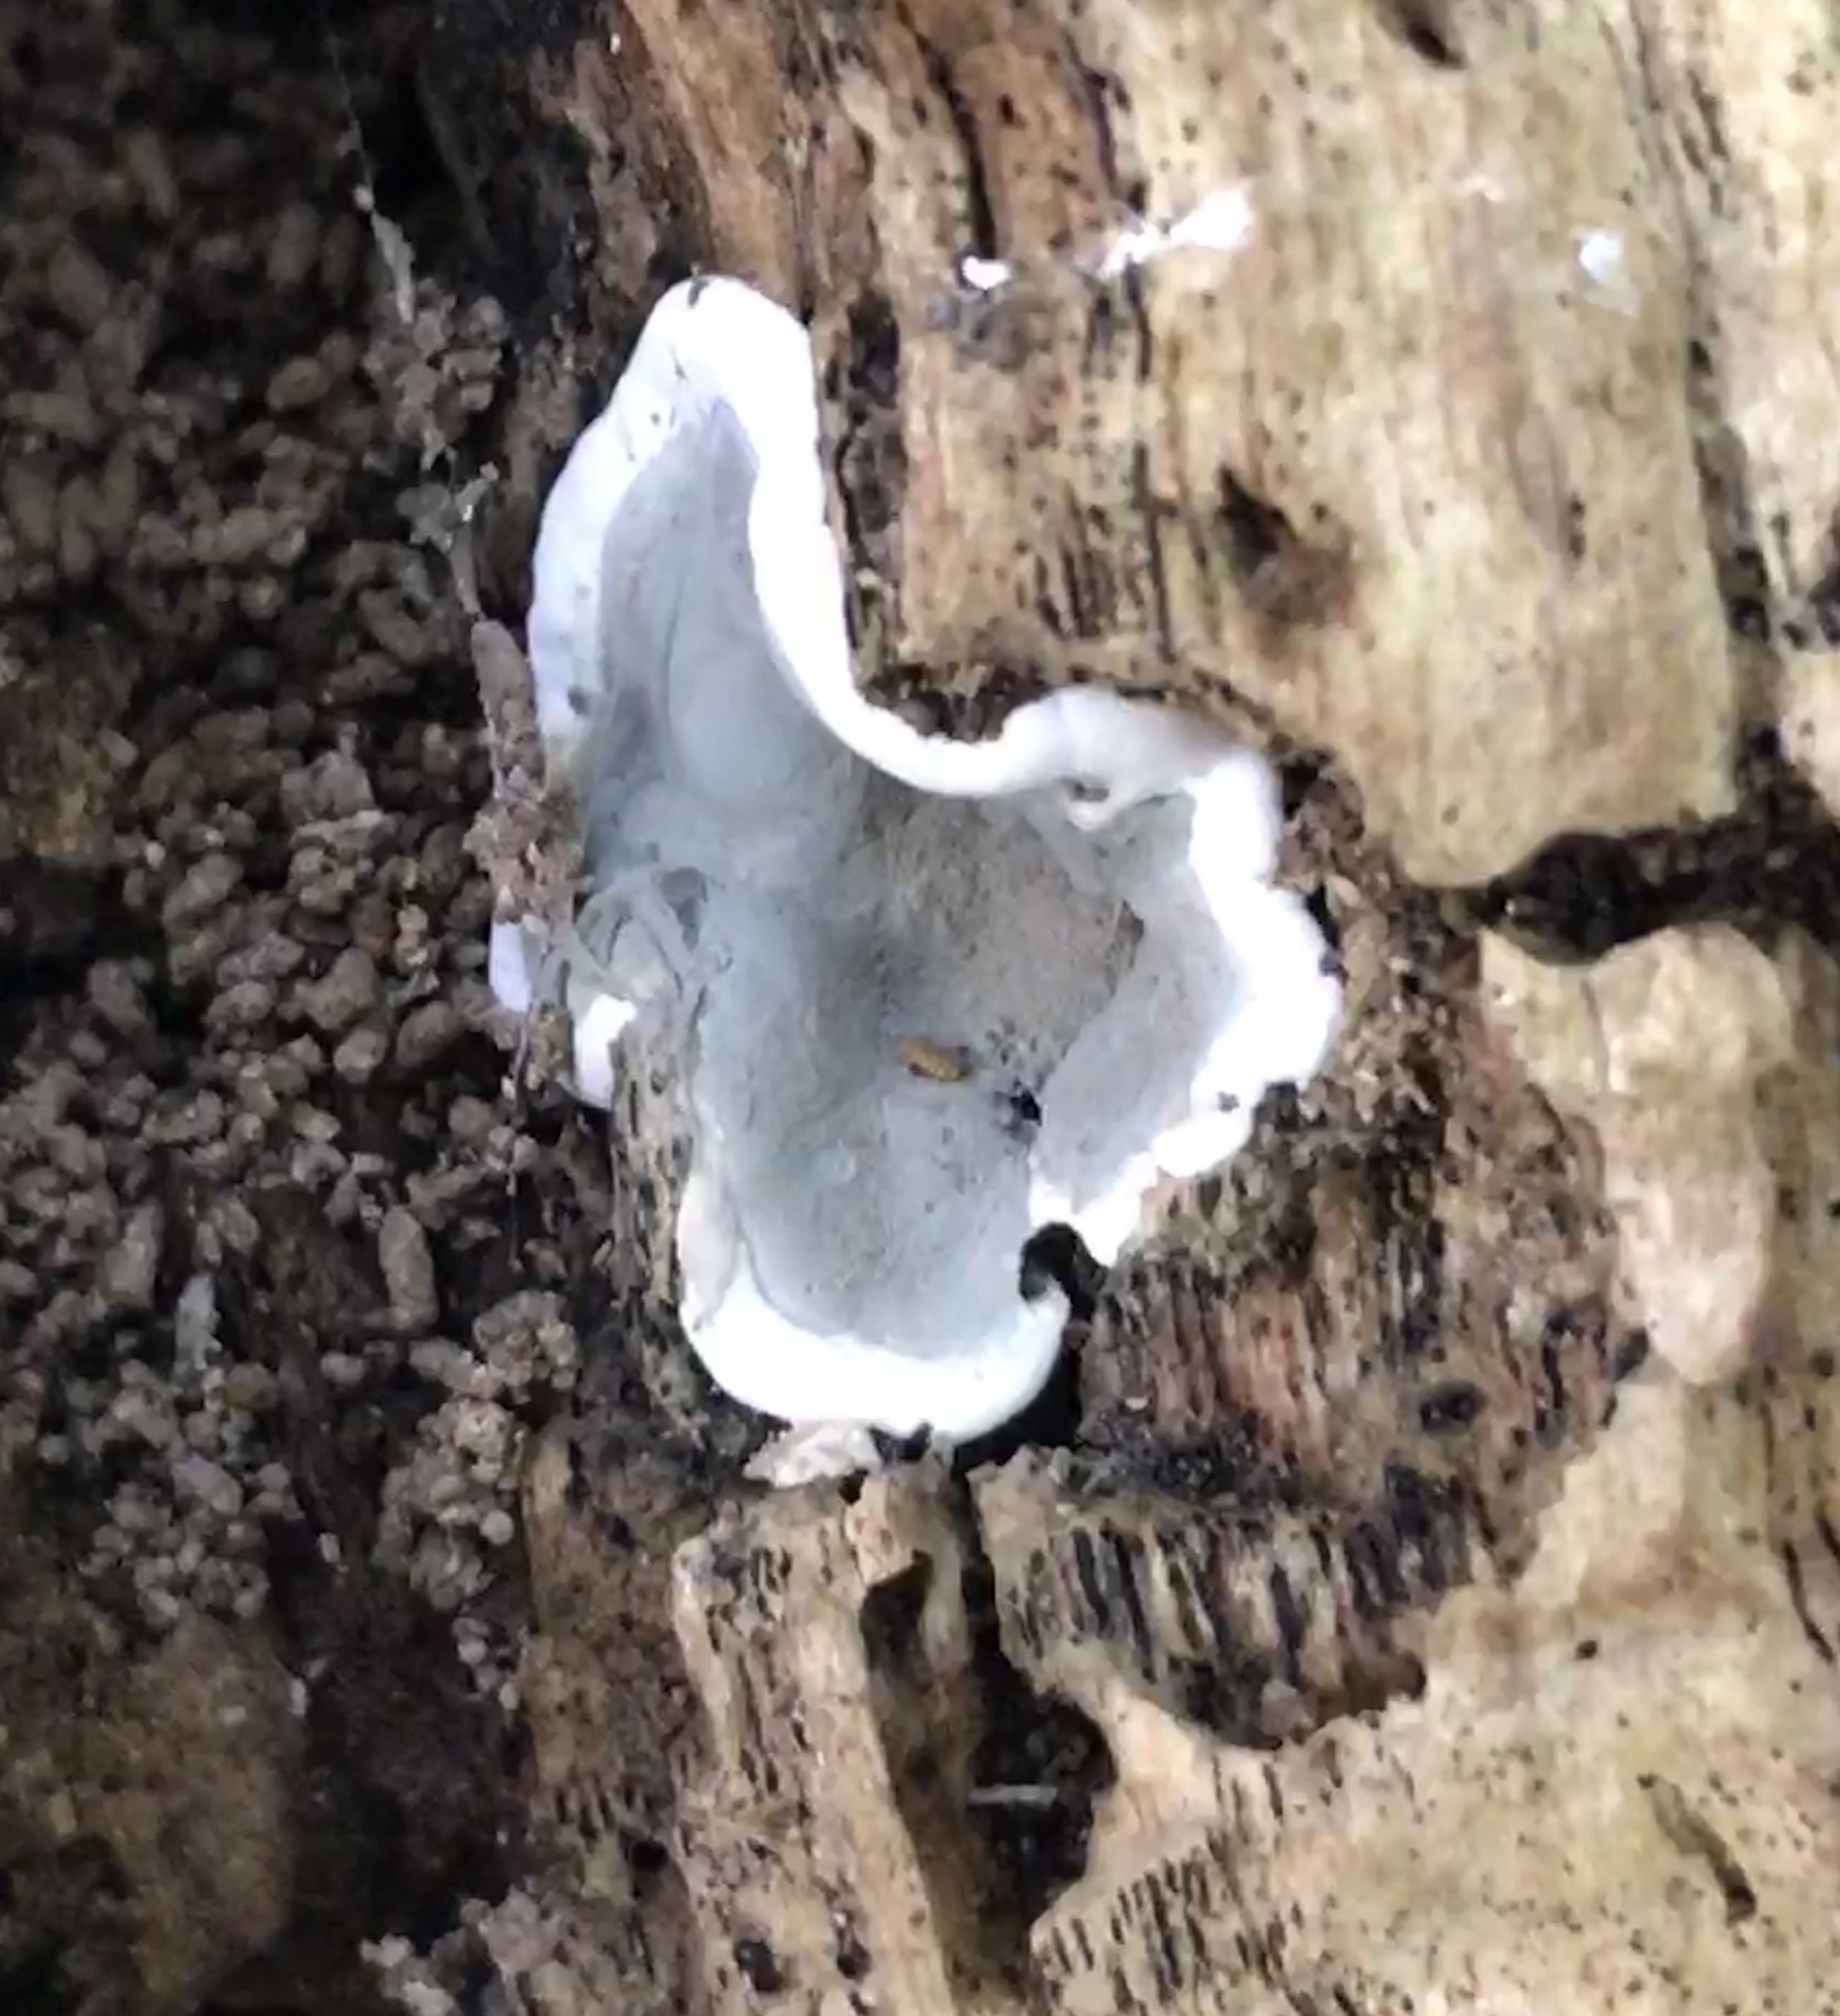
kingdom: Fungi
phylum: Ascomycota
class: Sordariomycetes
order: Xylariales
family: Xylariaceae
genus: Kretzschmaria
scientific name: Kretzschmaria deusta
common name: stor kulsvamp
